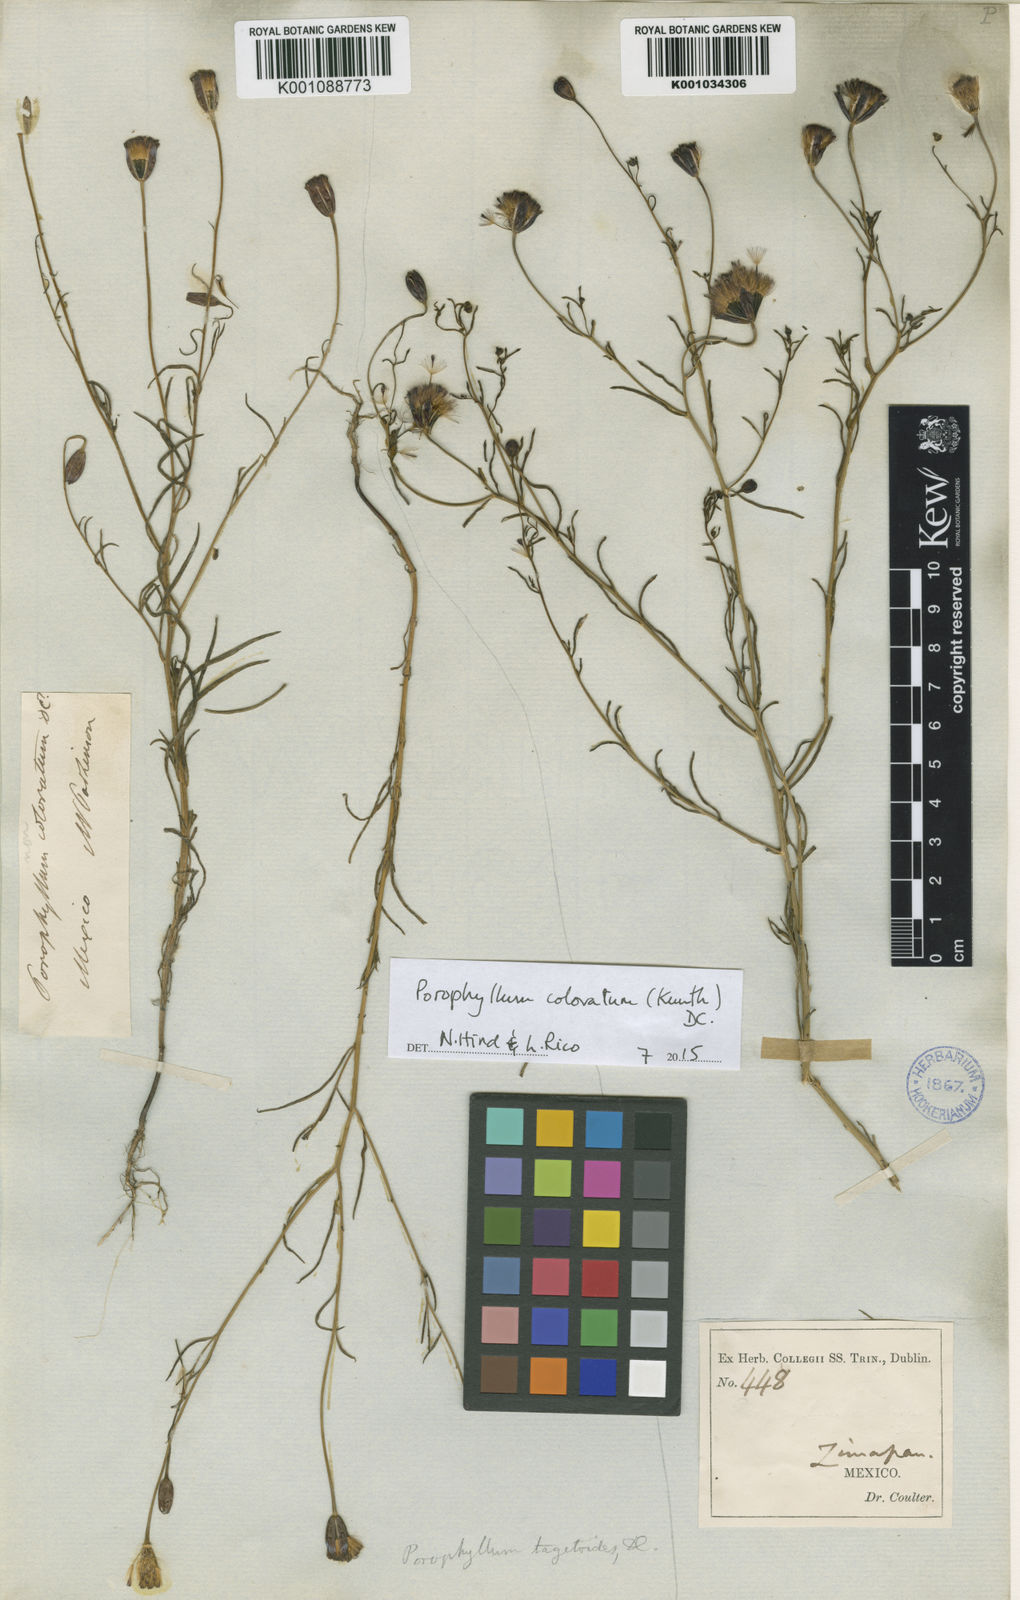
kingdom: Plantae
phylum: Tracheophyta
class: Magnoliopsida
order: Asterales
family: Asteraceae
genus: Porophyllum
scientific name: Porophyllum coloratum
